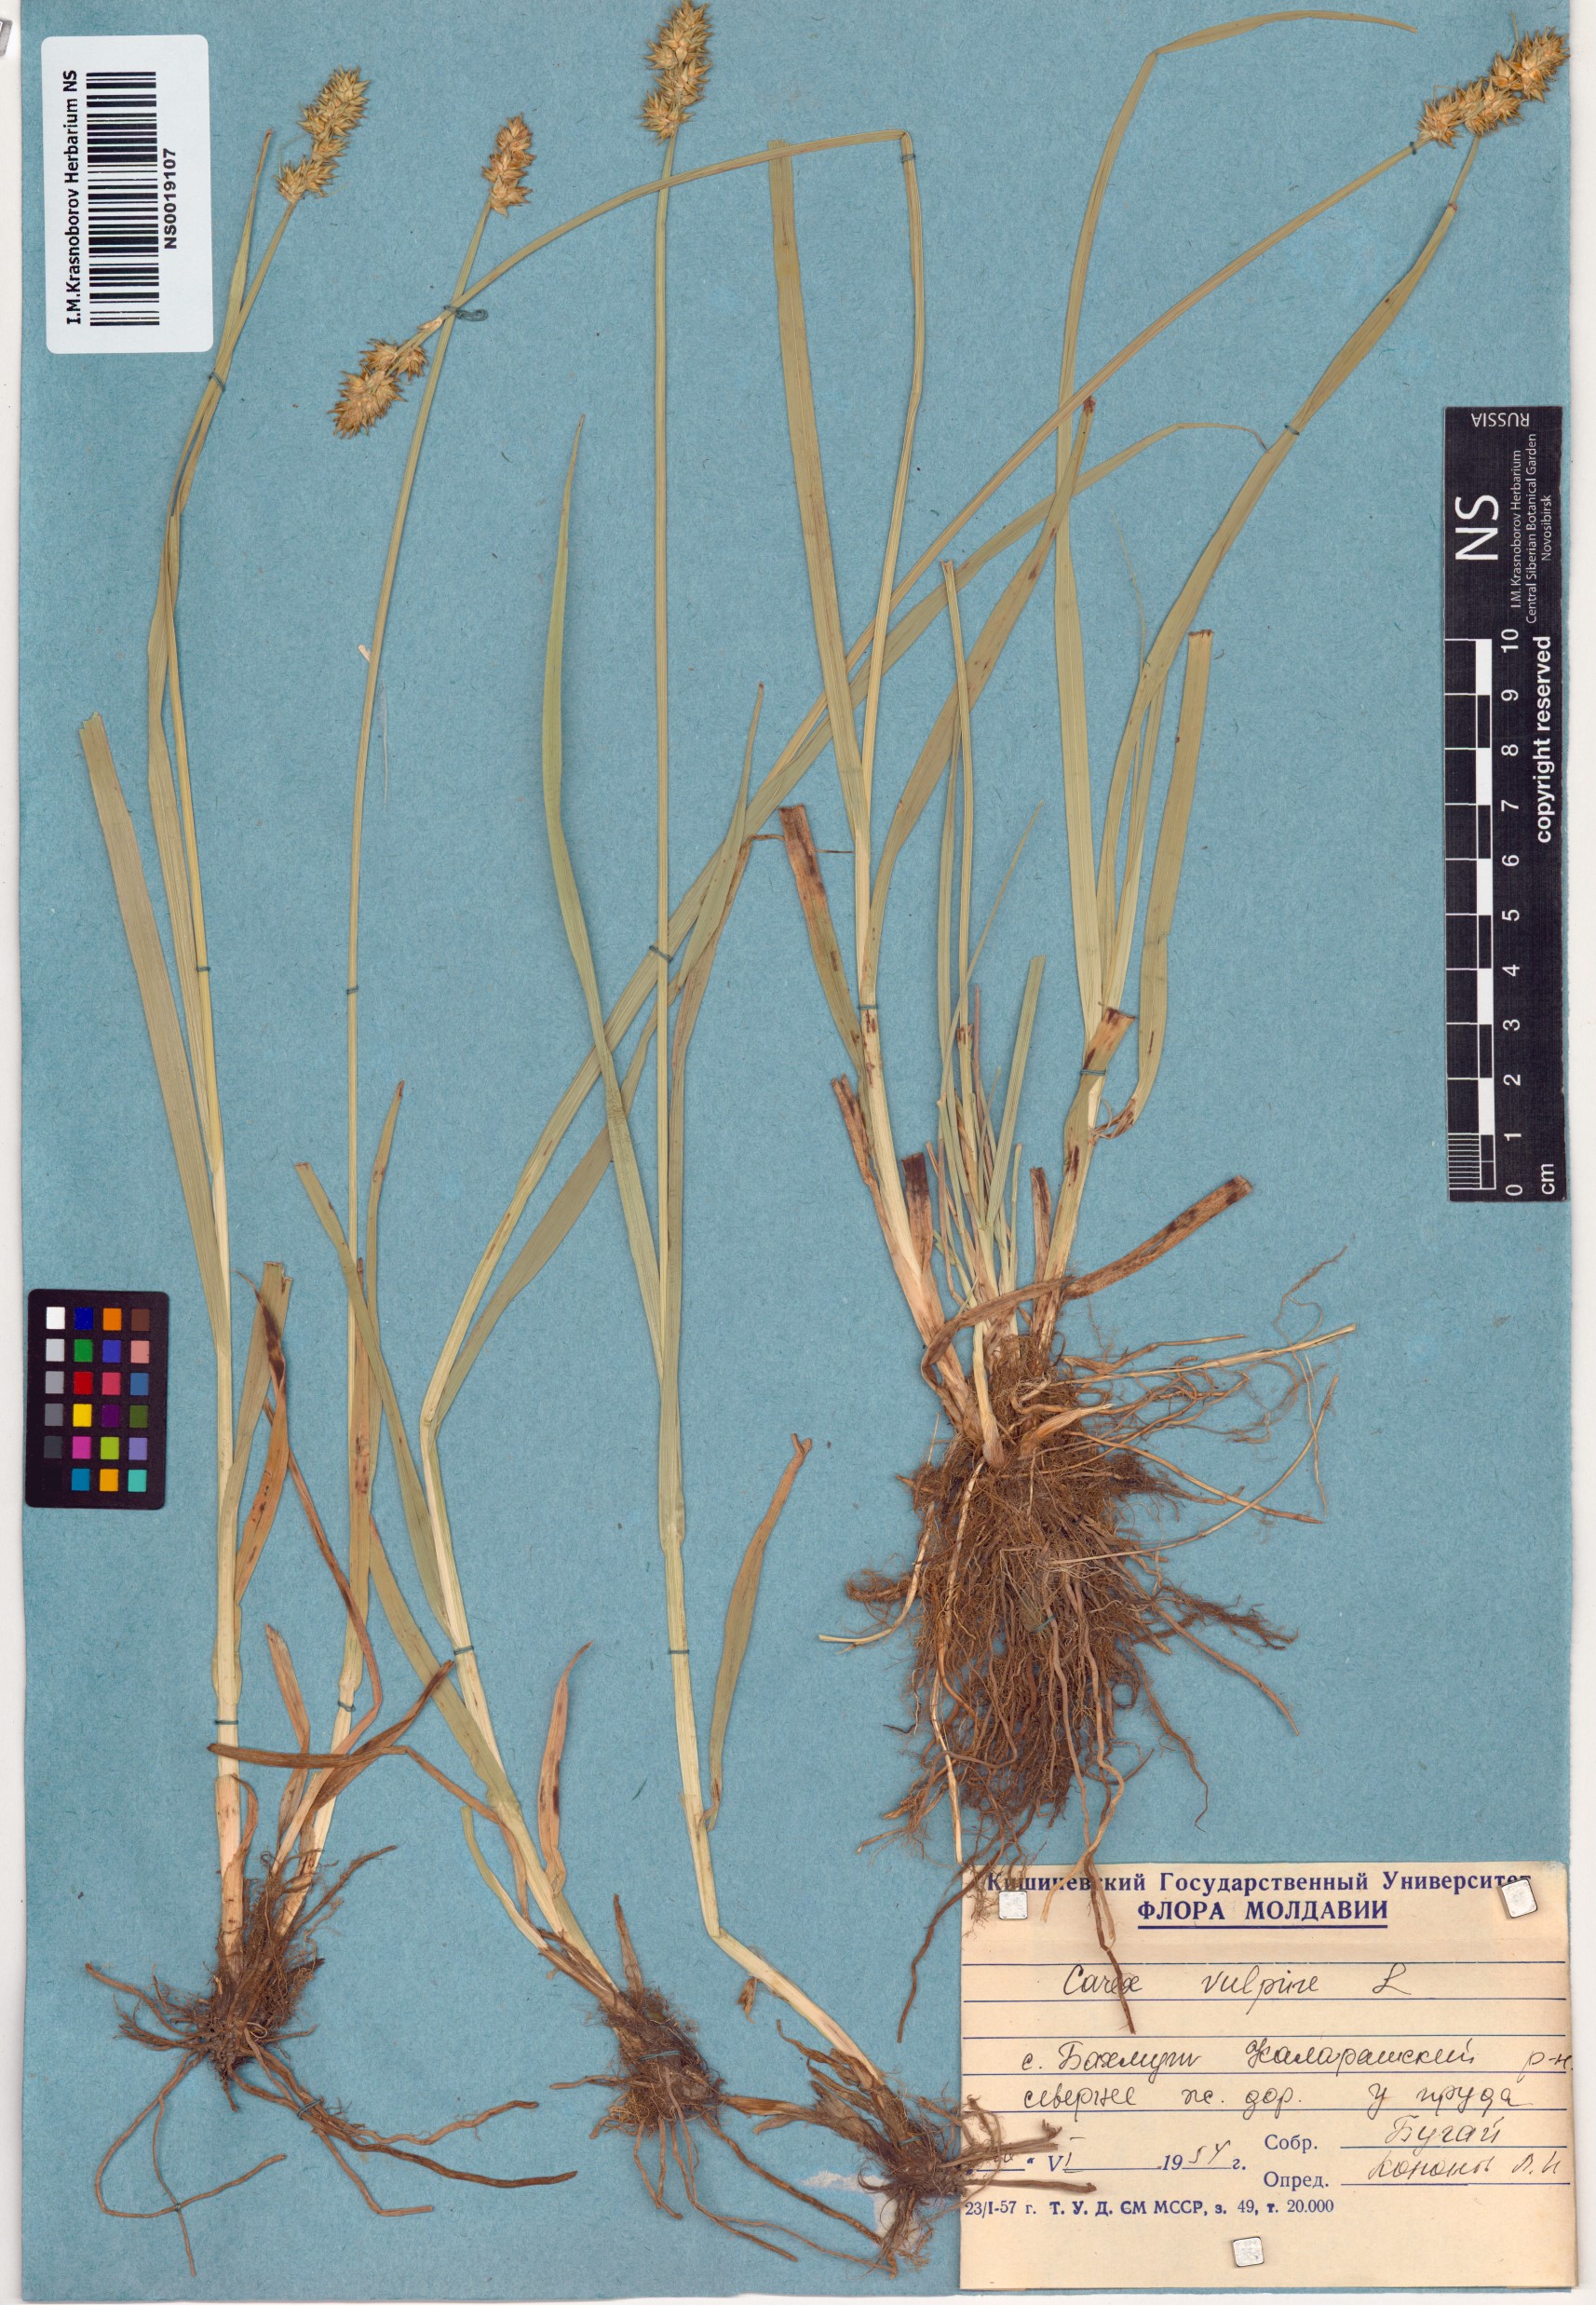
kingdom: Plantae
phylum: Tracheophyta
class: Liliopsida
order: Poales
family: Cyperaceae
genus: Carex
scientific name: Carex vulpina
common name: True fox-sedge
